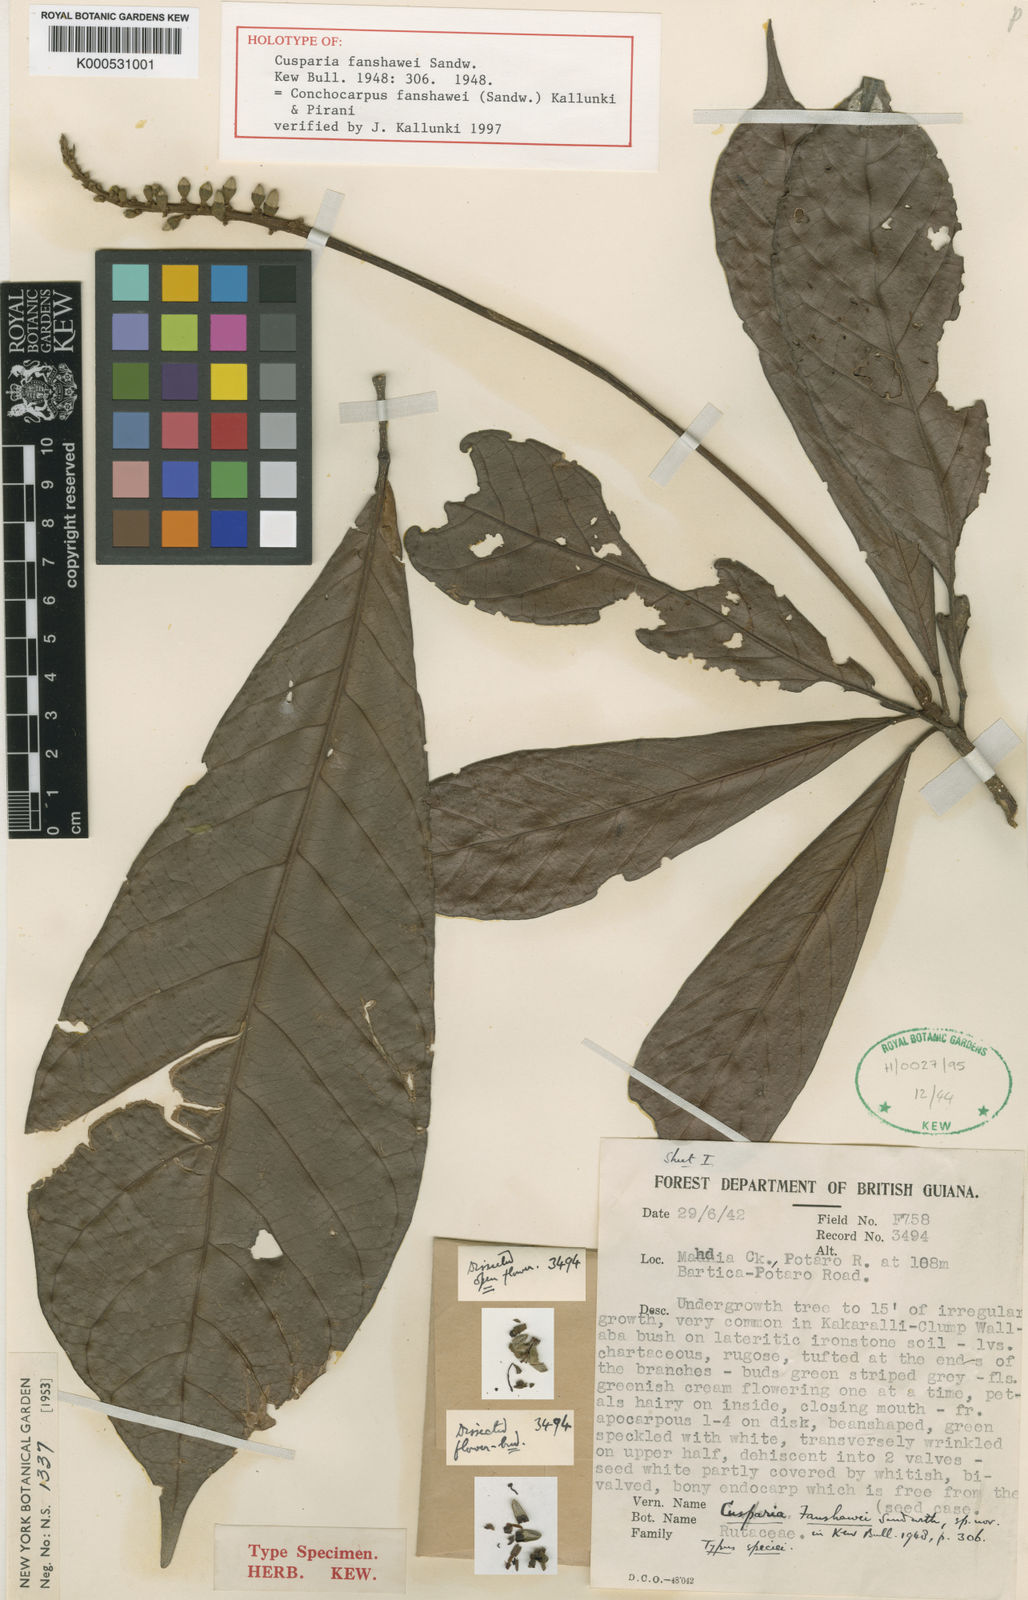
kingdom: Plantae
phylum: Tracheophyta
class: Magnoliopsida
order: Sapindales
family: Rutaceae
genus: Conchocarpus
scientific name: Conchocarpus fanshawei
